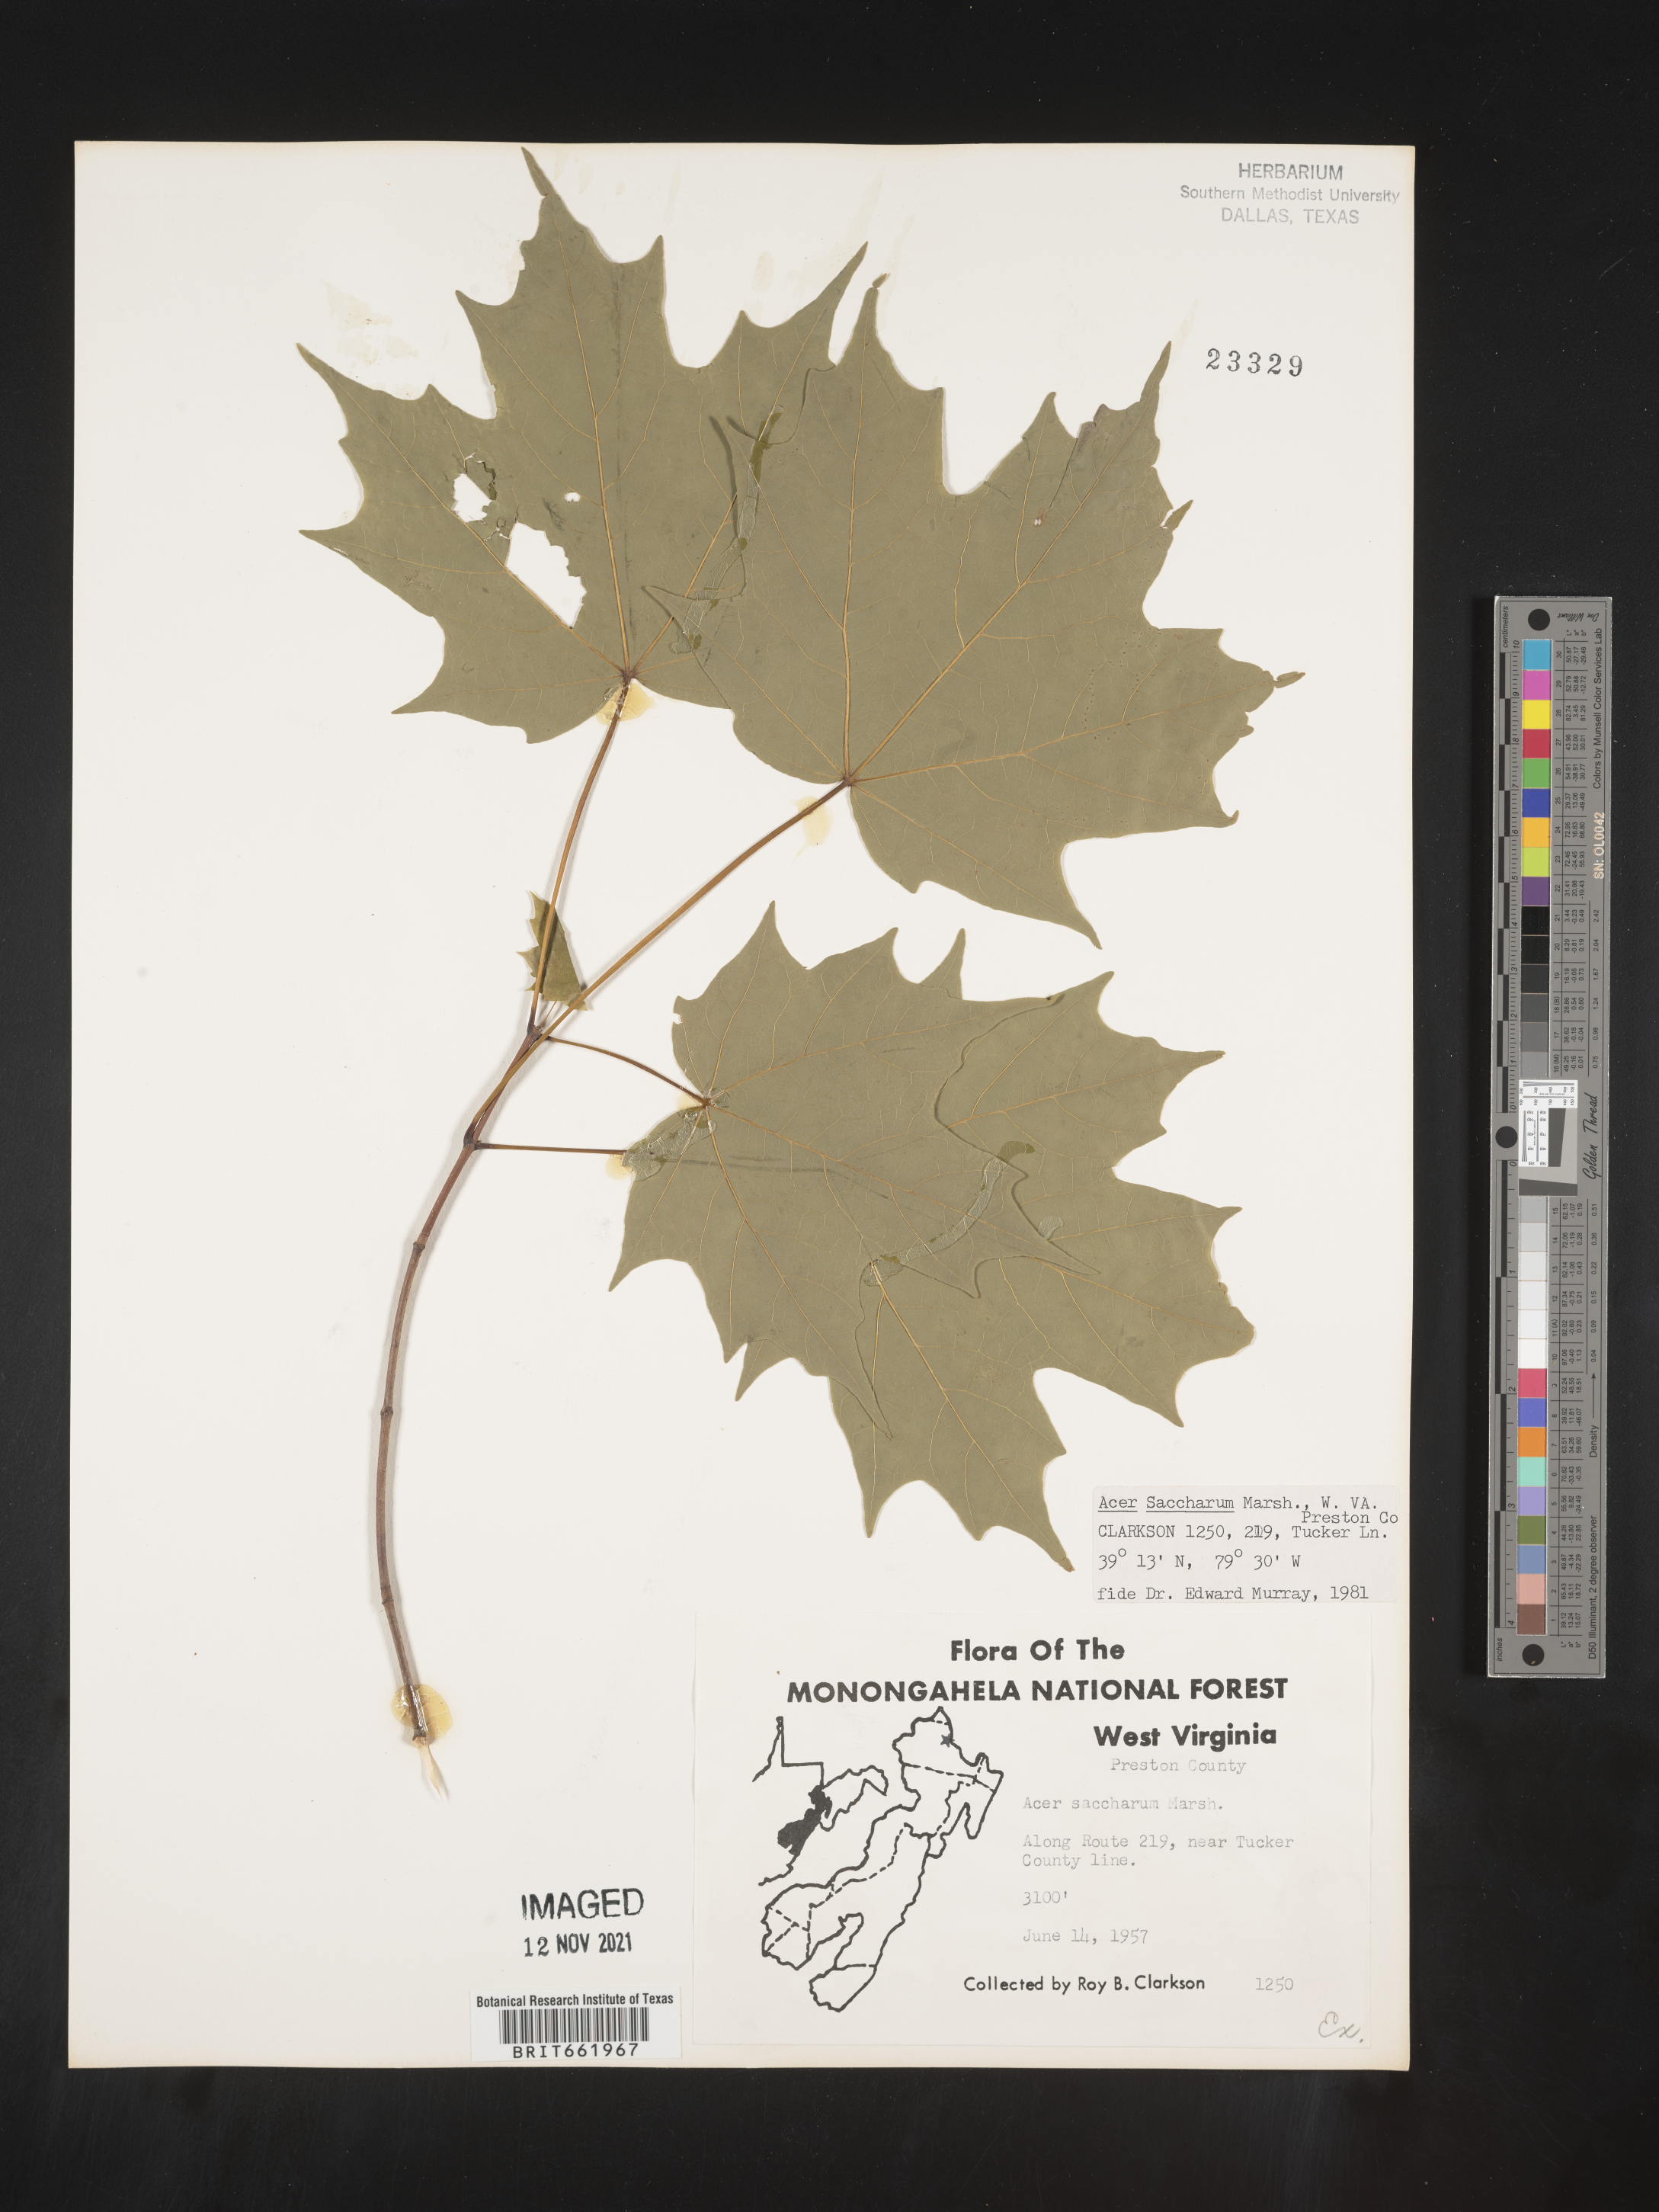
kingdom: Plantae
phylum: Tracheophyta
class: Magnoliopsida
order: Sapindales
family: Sapindaceae
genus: Acer
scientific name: Acer saccharum
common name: Sugar maple
